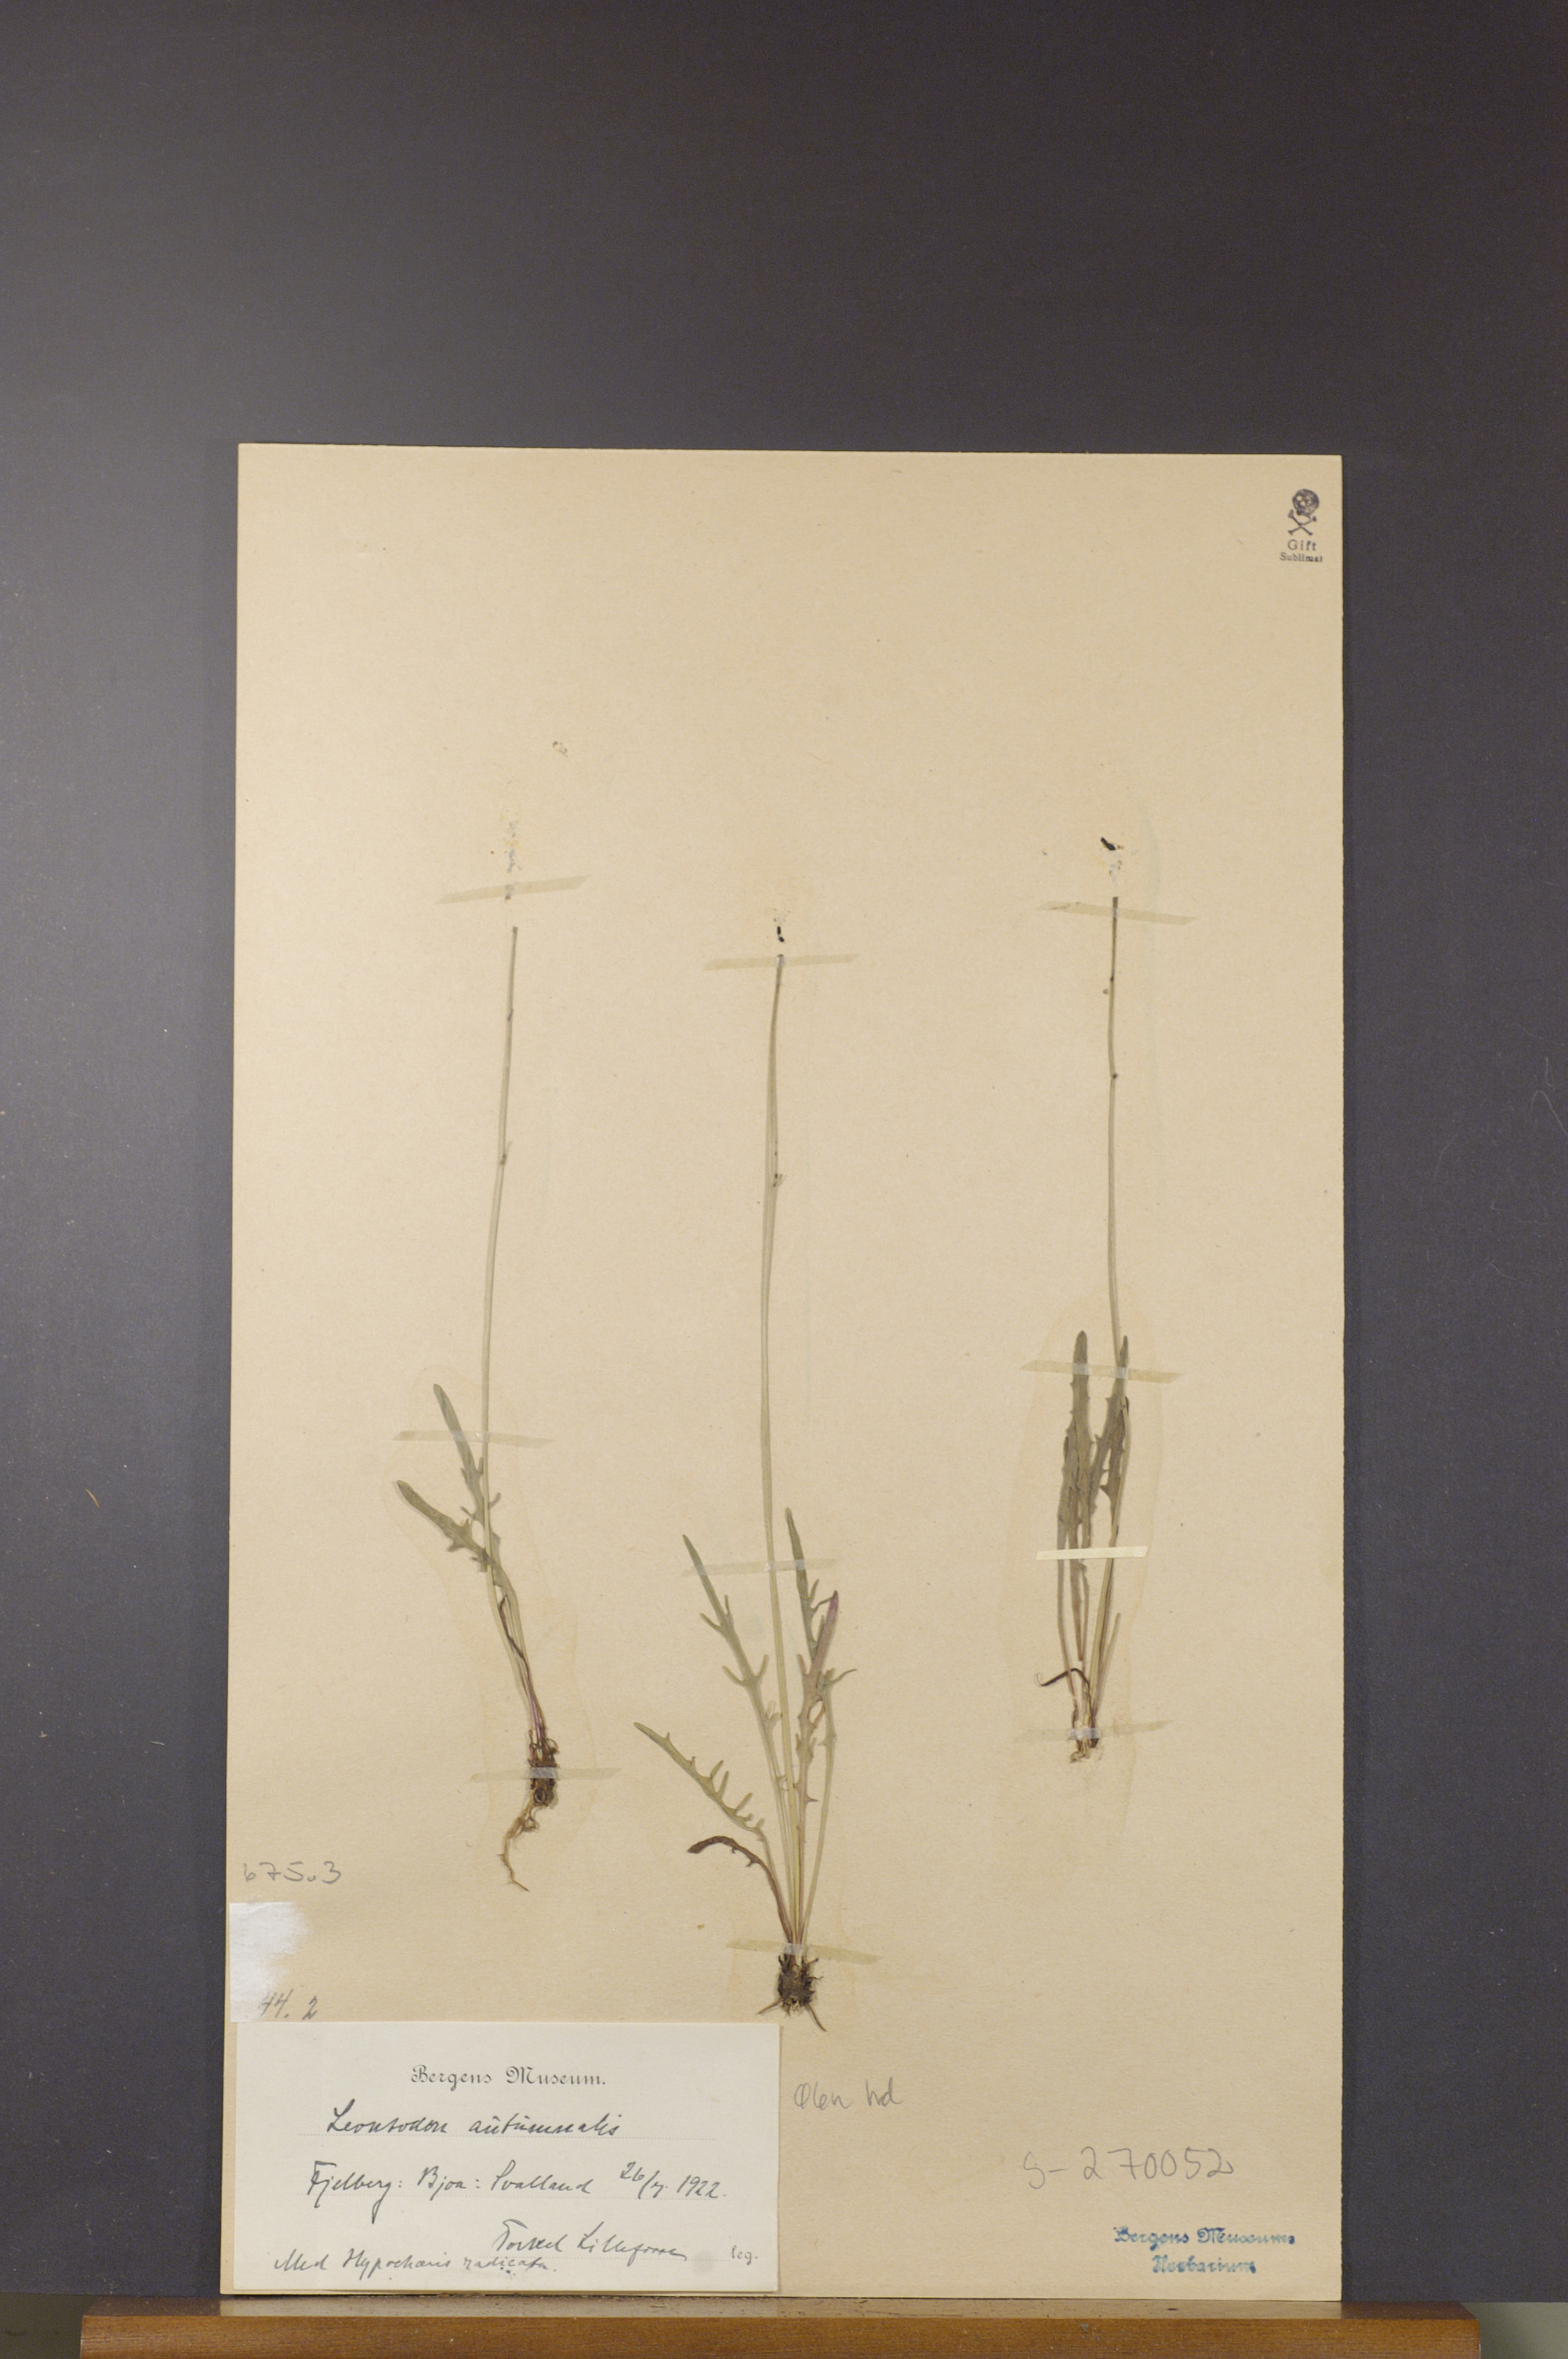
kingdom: Plantae
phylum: Tracheophyta
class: Magnoliopsida
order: Asterales
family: Asteraceae
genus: Scorzoneroides
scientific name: Scorzoneroides autumnalis
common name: Autumn hawkbit
